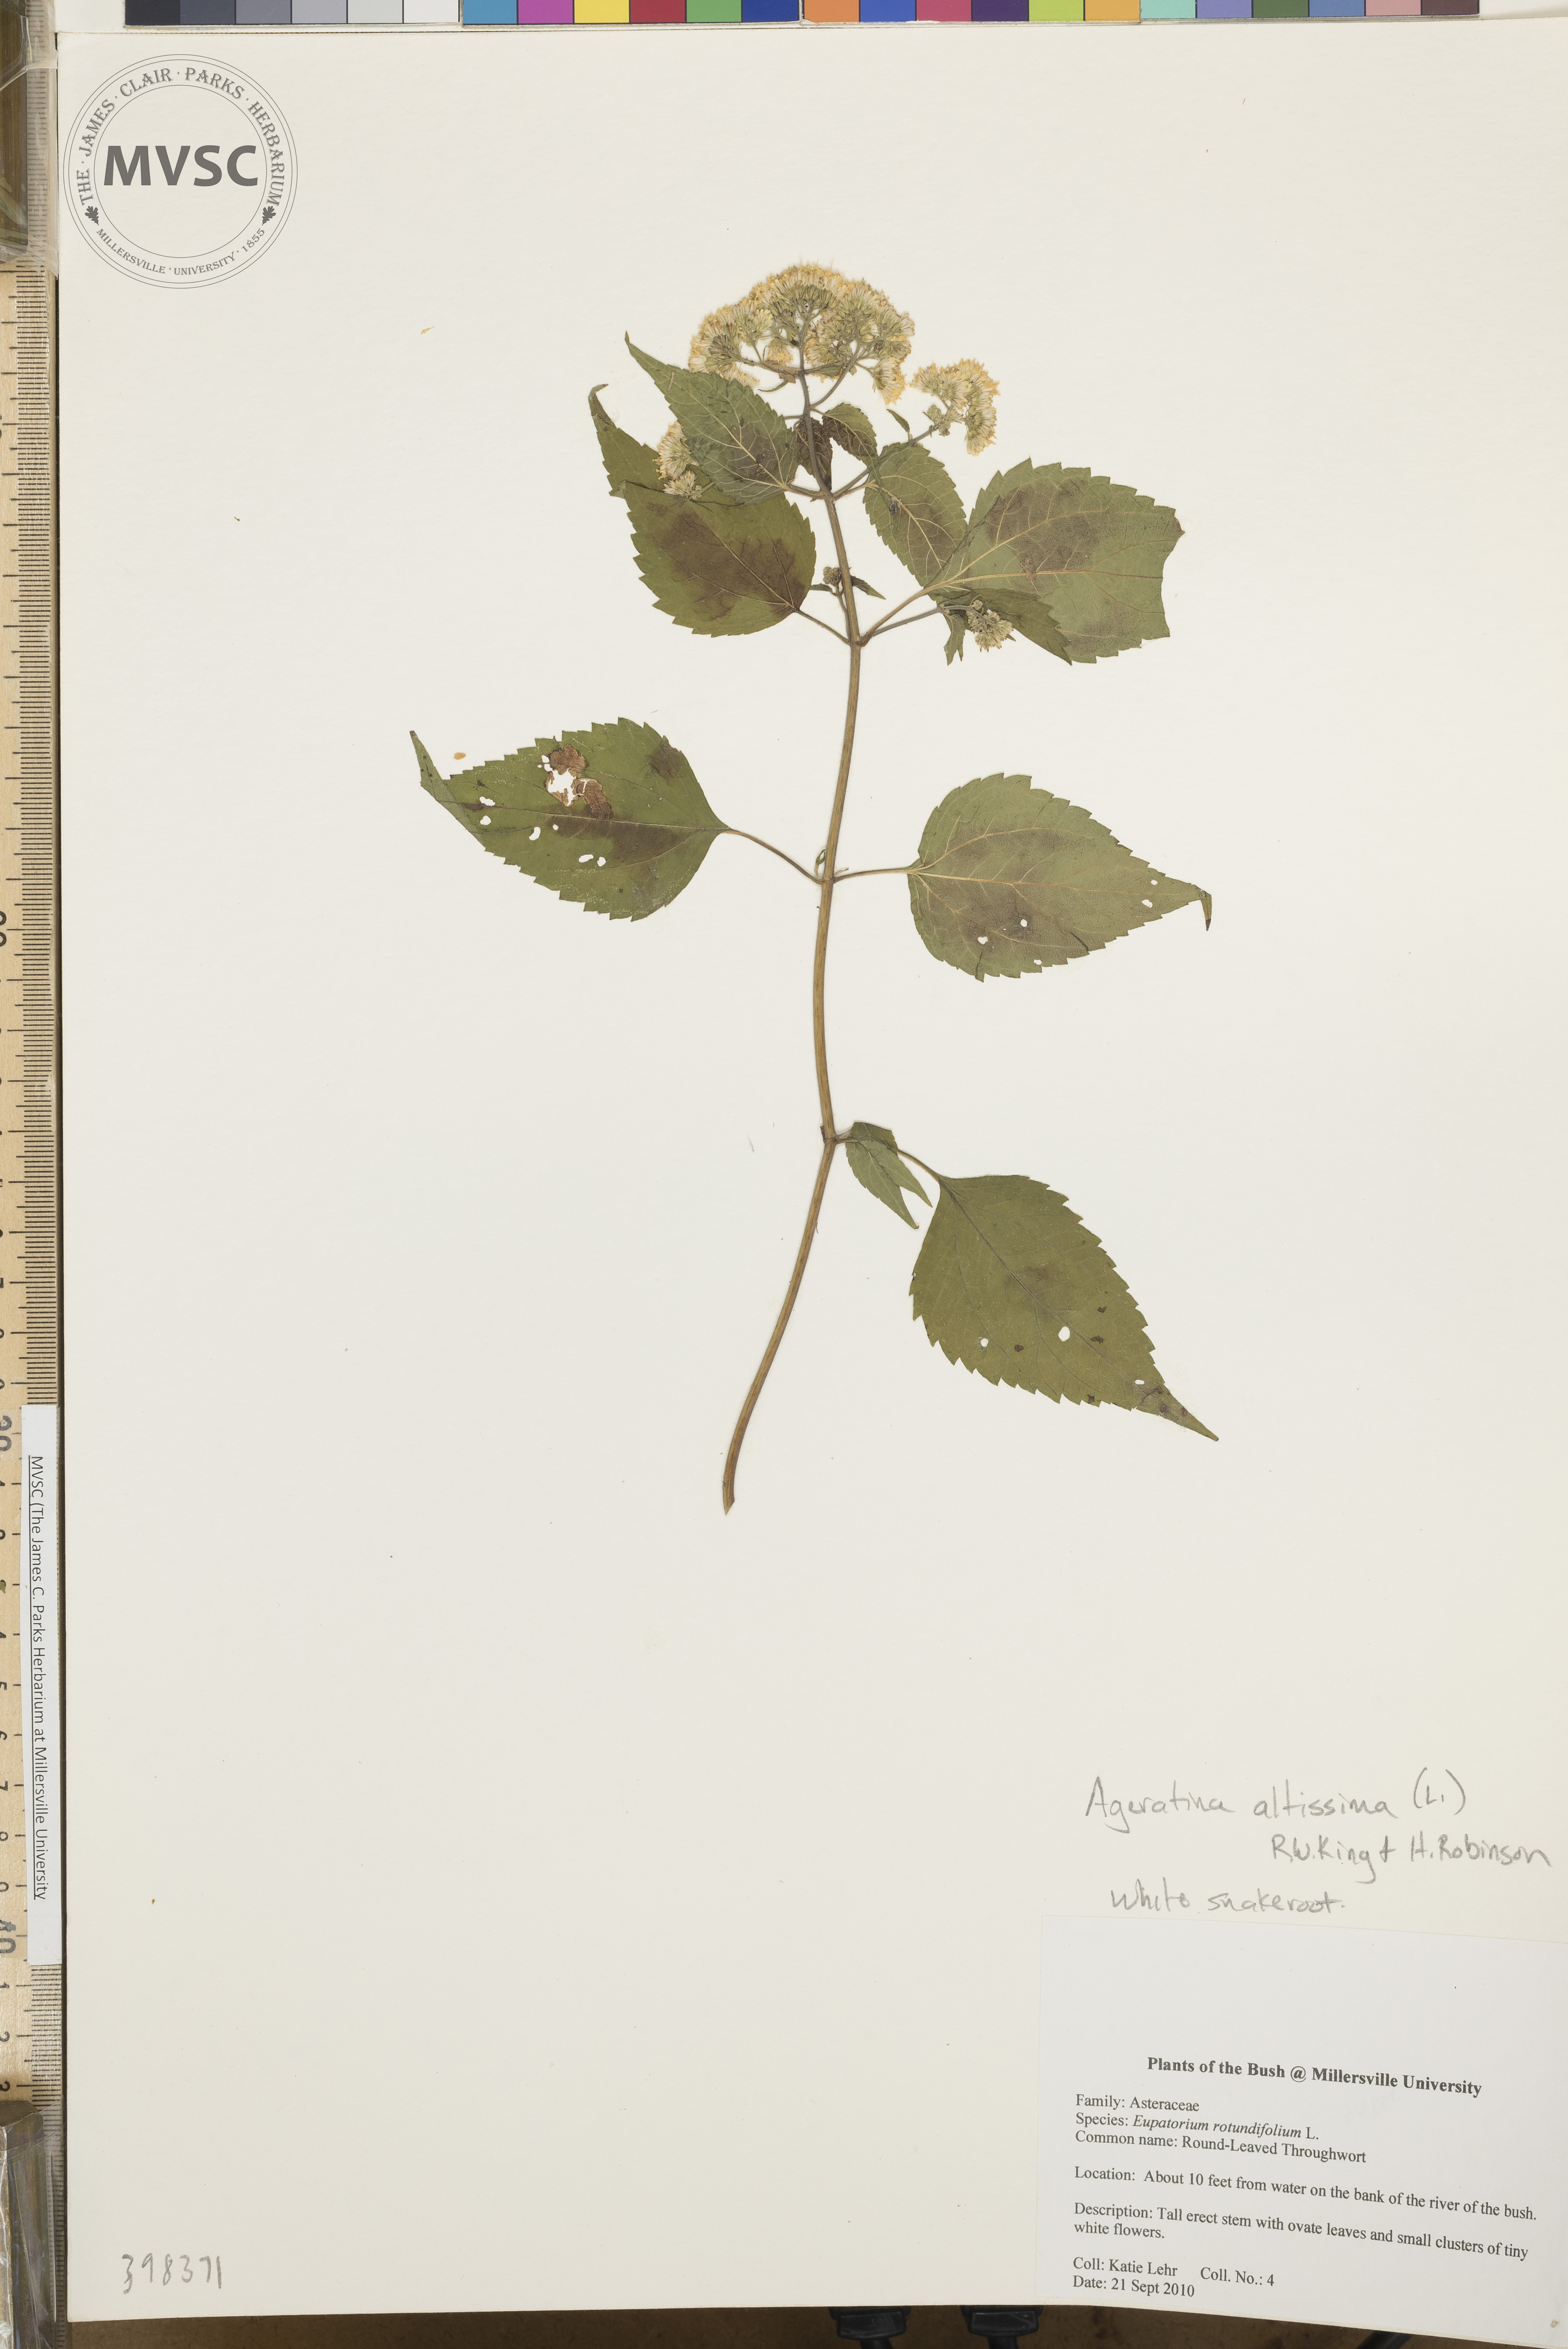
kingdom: Plantae
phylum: Tracheophyta
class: Magnoliopsida
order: Asterales
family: Asteraceae
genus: Ageratina
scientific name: Ageratina altissima
